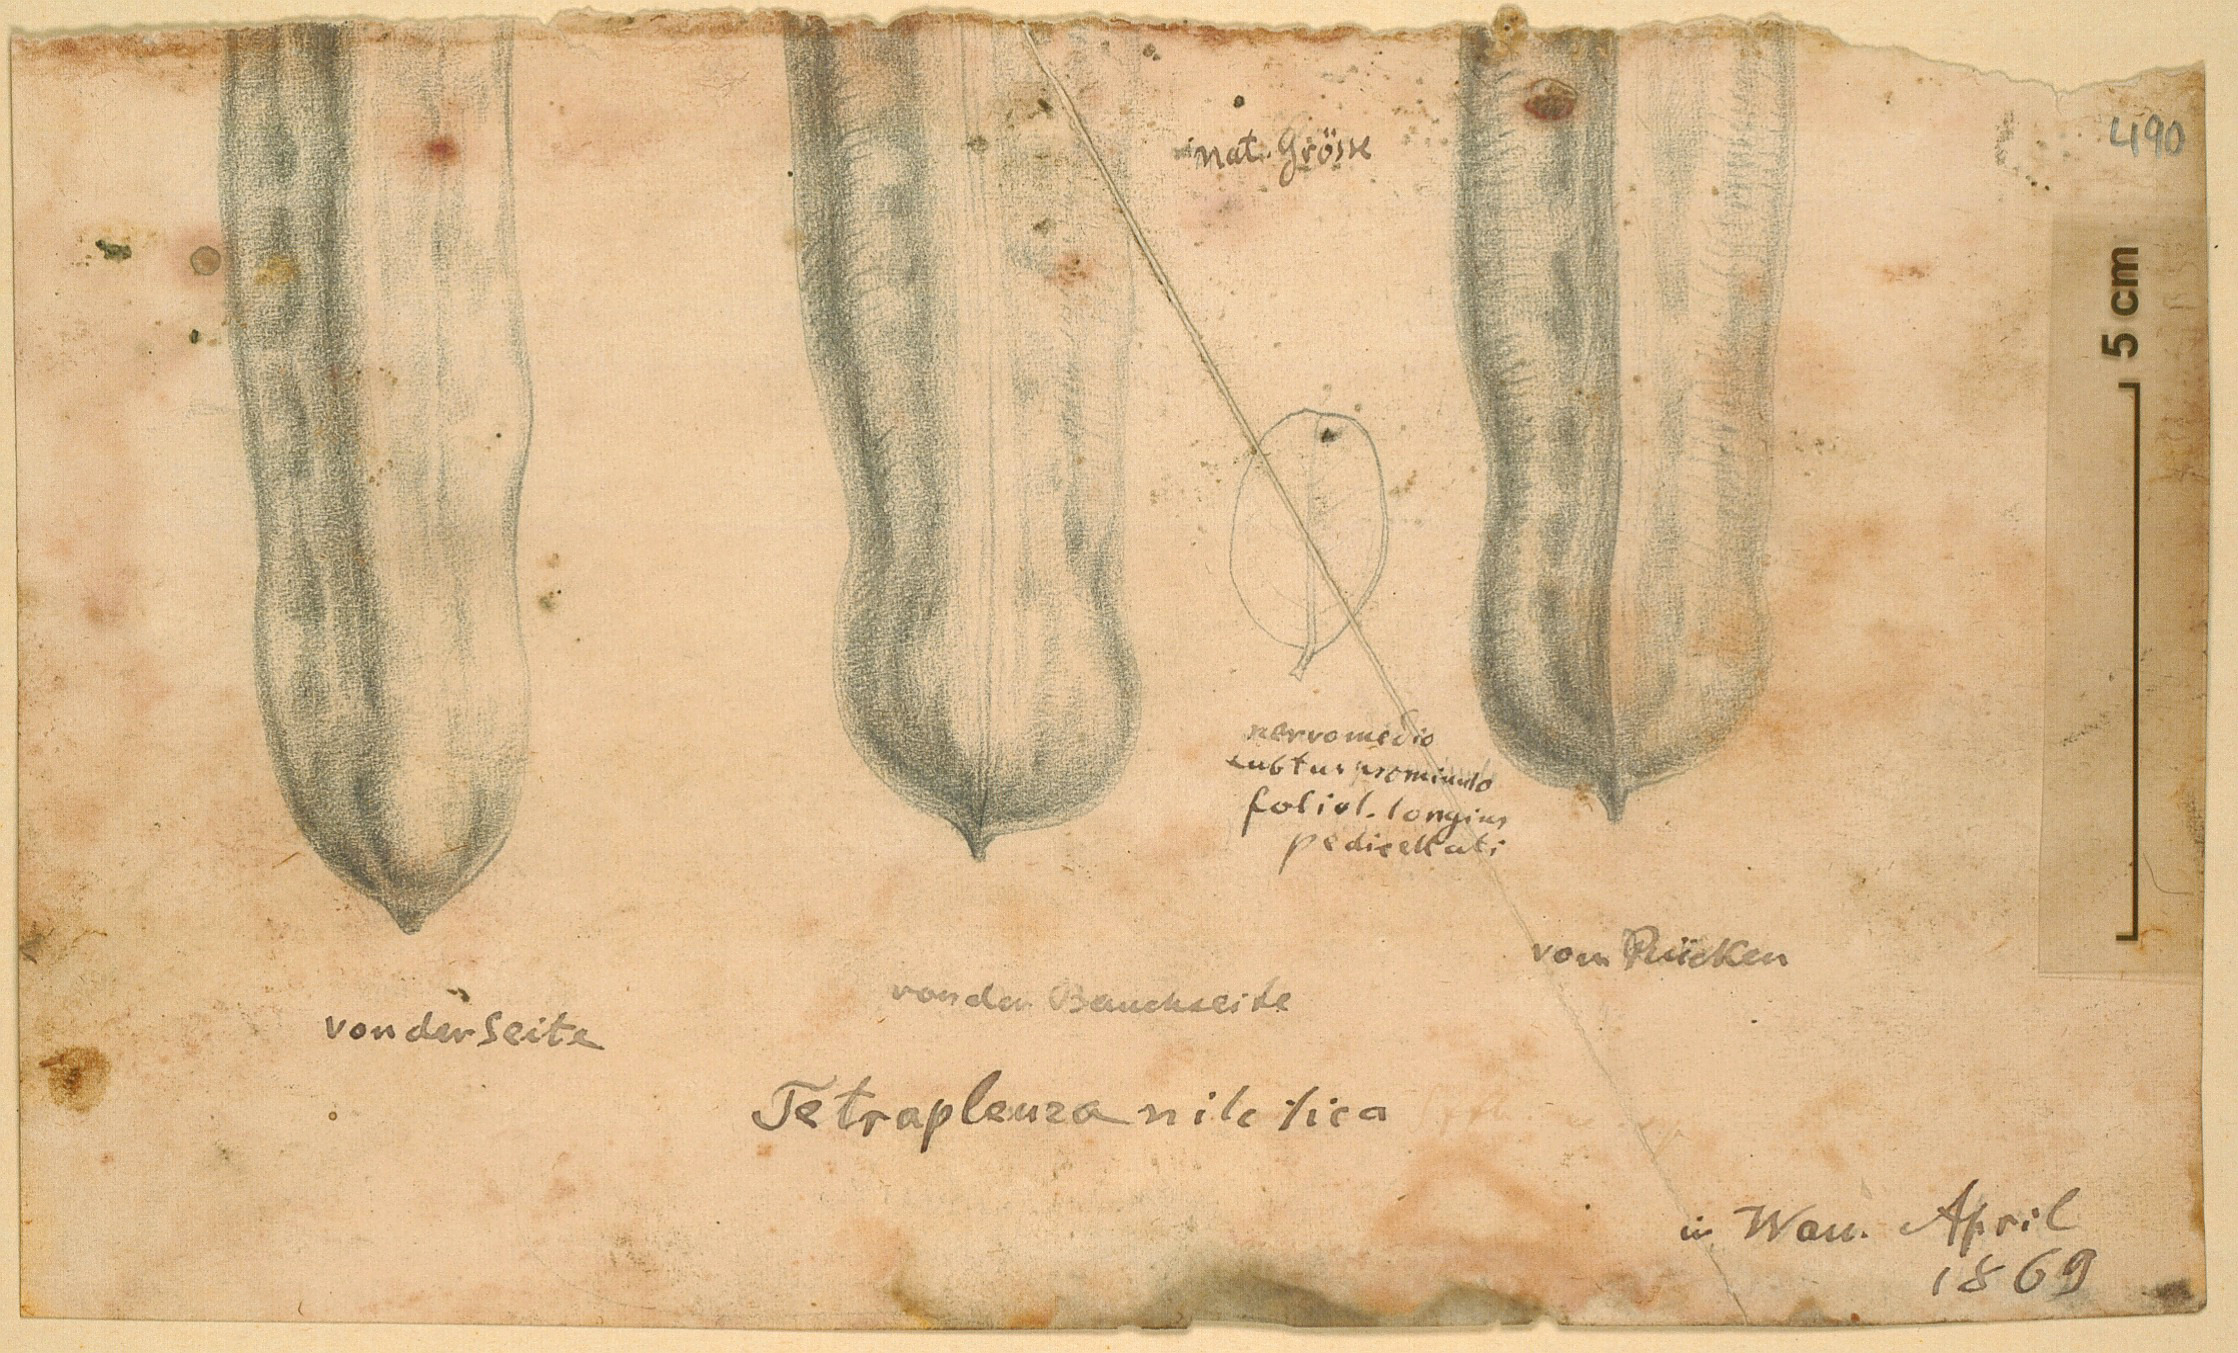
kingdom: Plantae
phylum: Tracheophyta
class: Magnoliopsida
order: Fabales
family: Fabaceae
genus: Tetrapleura
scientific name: Tetrapleura nilotica
